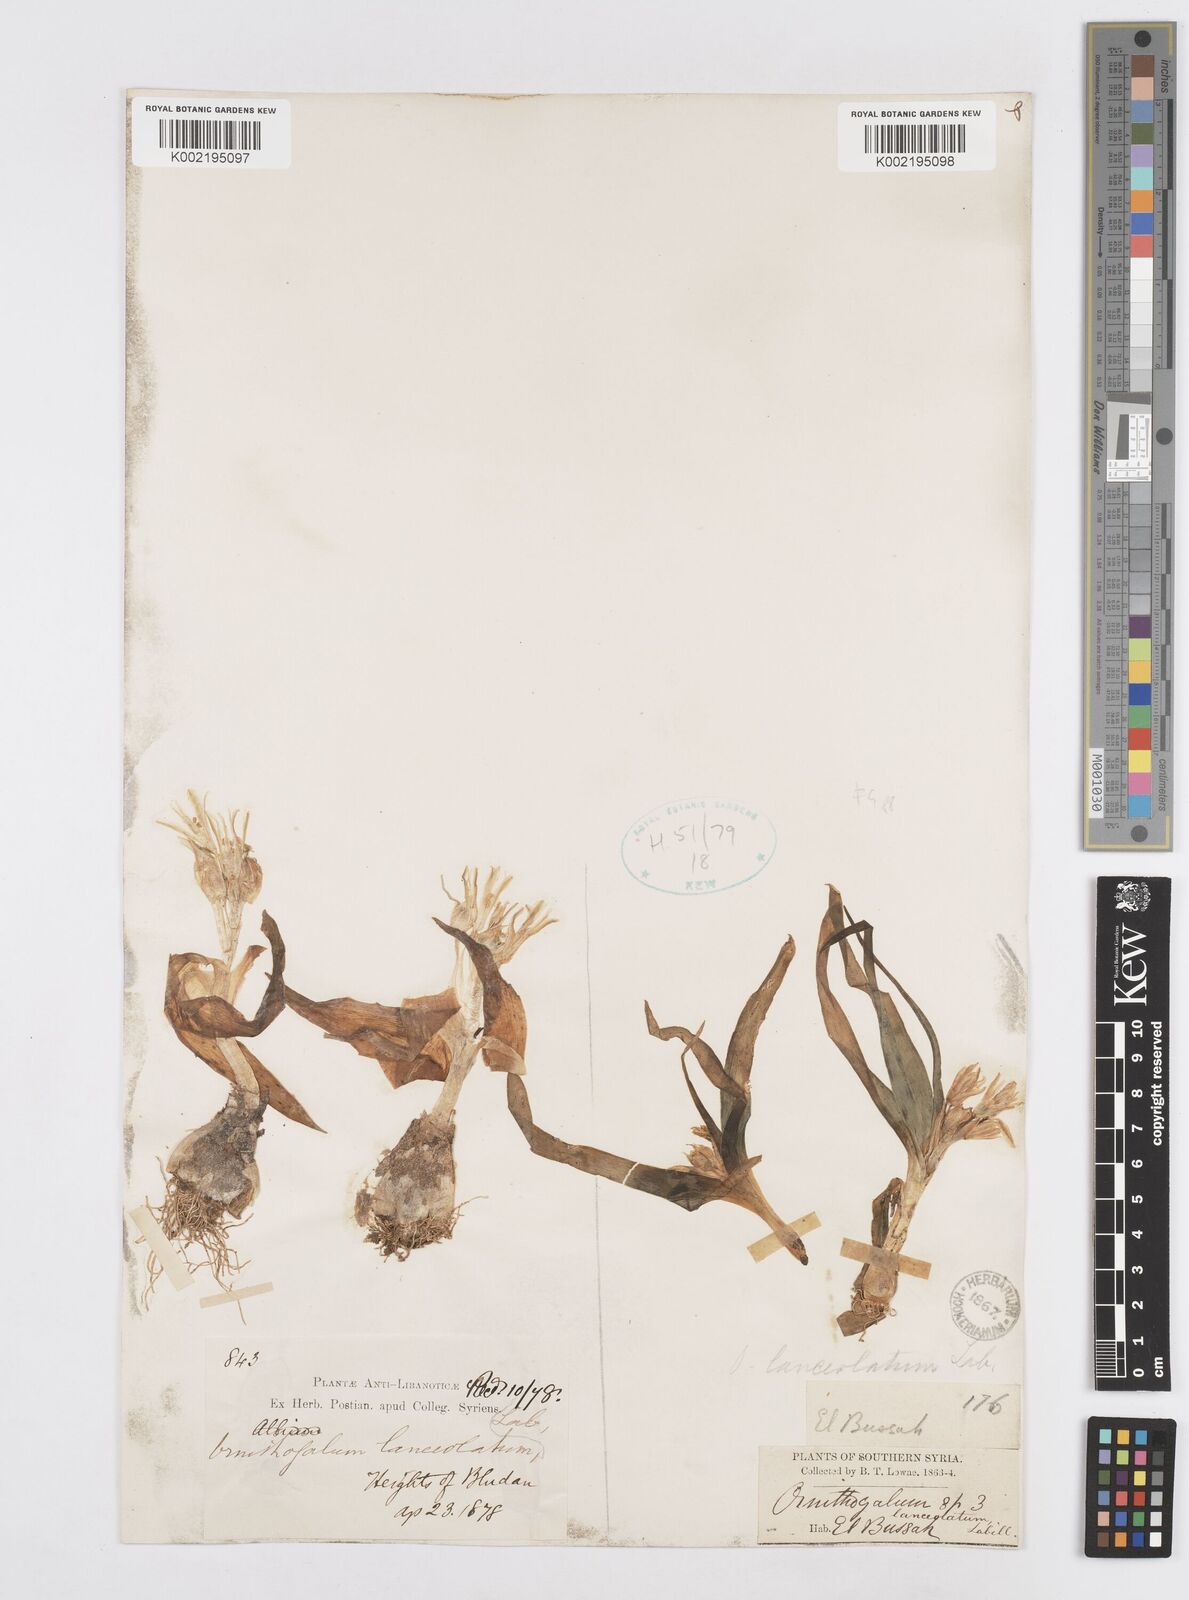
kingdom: Plantae
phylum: Tracheophyta
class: Liliopsida
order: Asparagales
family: Asparagaceae
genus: Ornithogalum
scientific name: Ornithogalum lanceolatum
